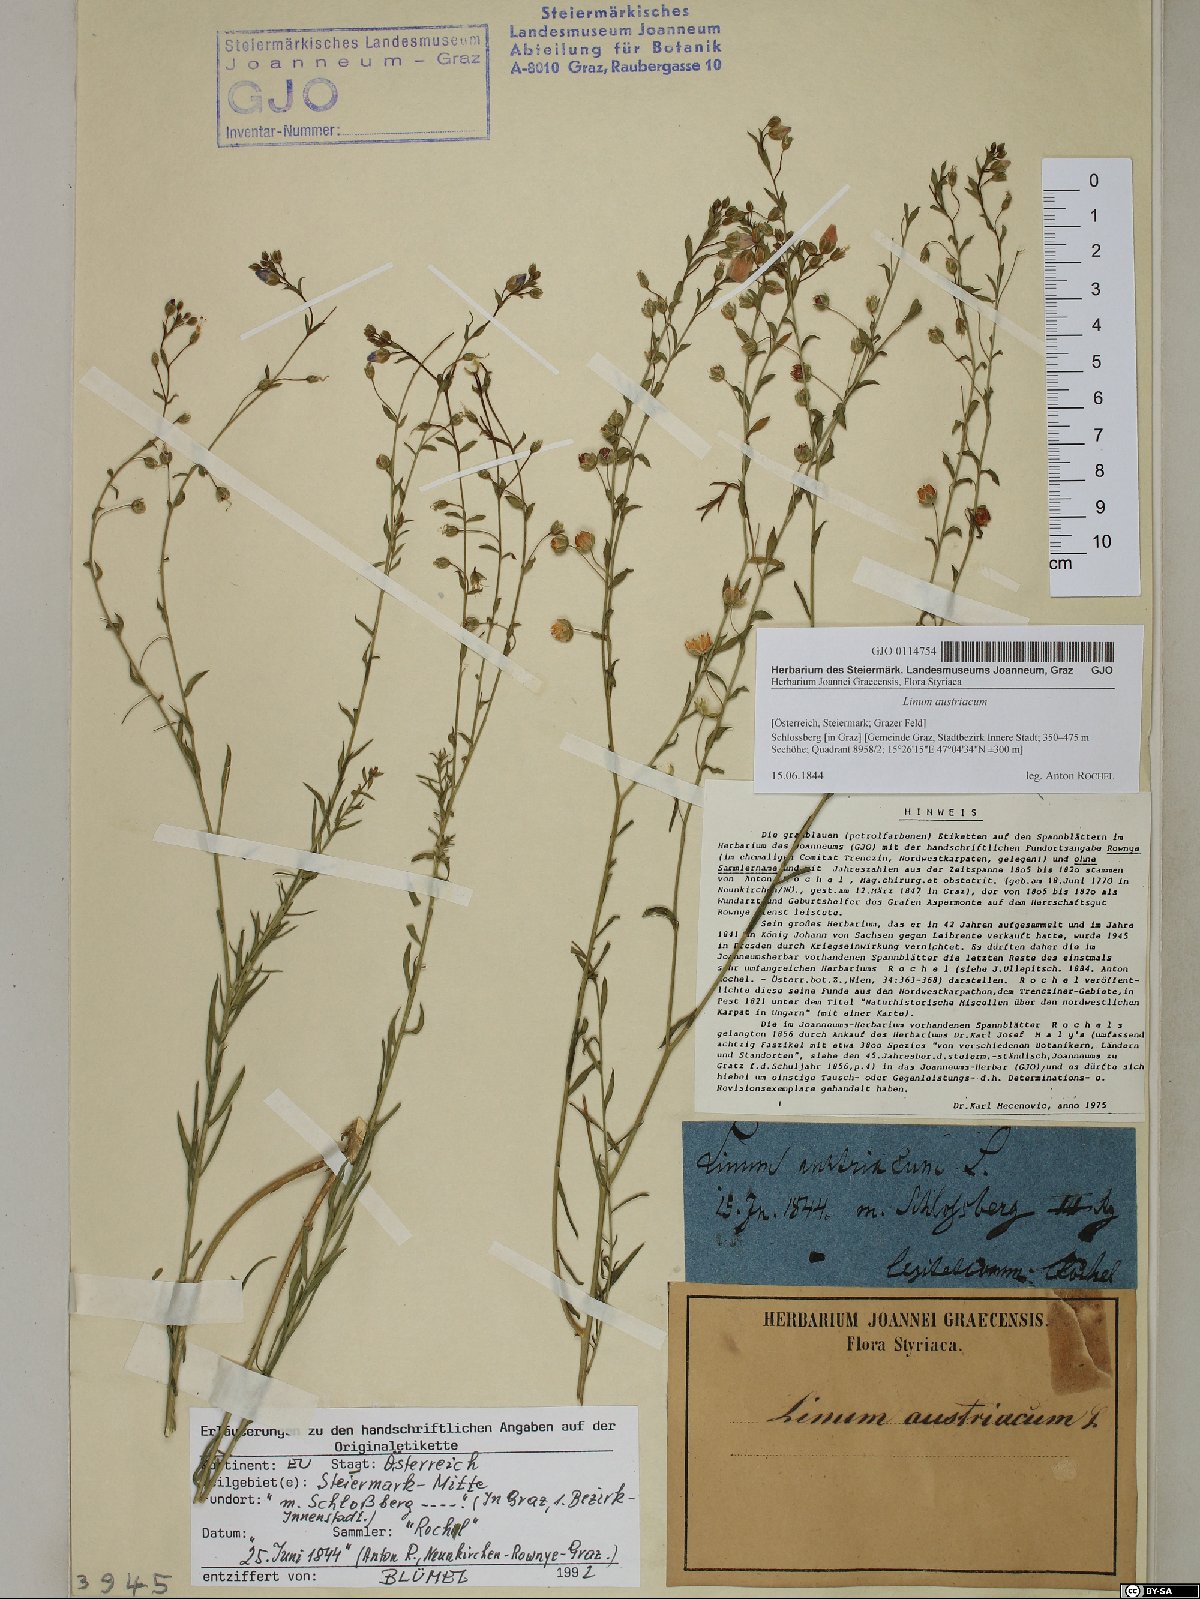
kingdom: Plantae
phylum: Tracheophyta
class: Magnoliopsida
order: Malpighiales
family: Linaceae
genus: Linum
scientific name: Linum austriacum
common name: Austrian flax
